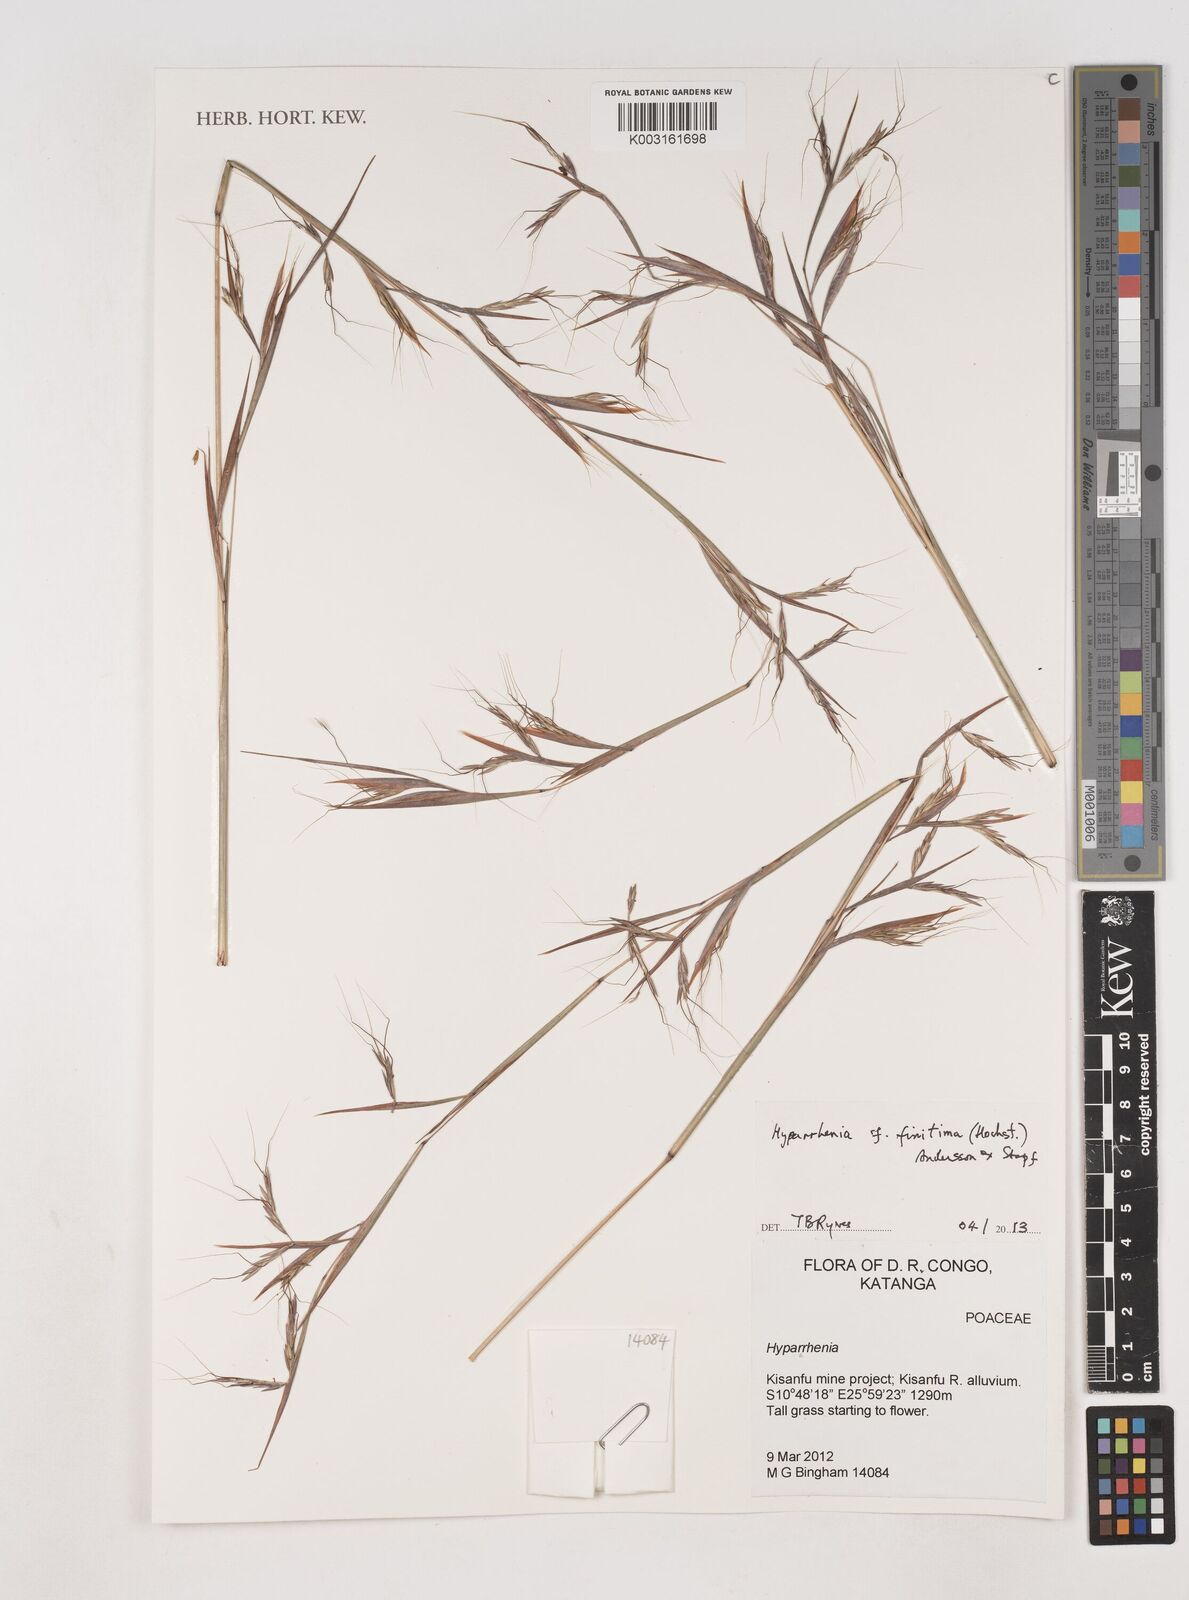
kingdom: Plantae
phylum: Tracheophyta
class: Liliopsida
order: Poales
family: Poaceae
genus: Hyparrhenia
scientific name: Hyparrhenia finitima
